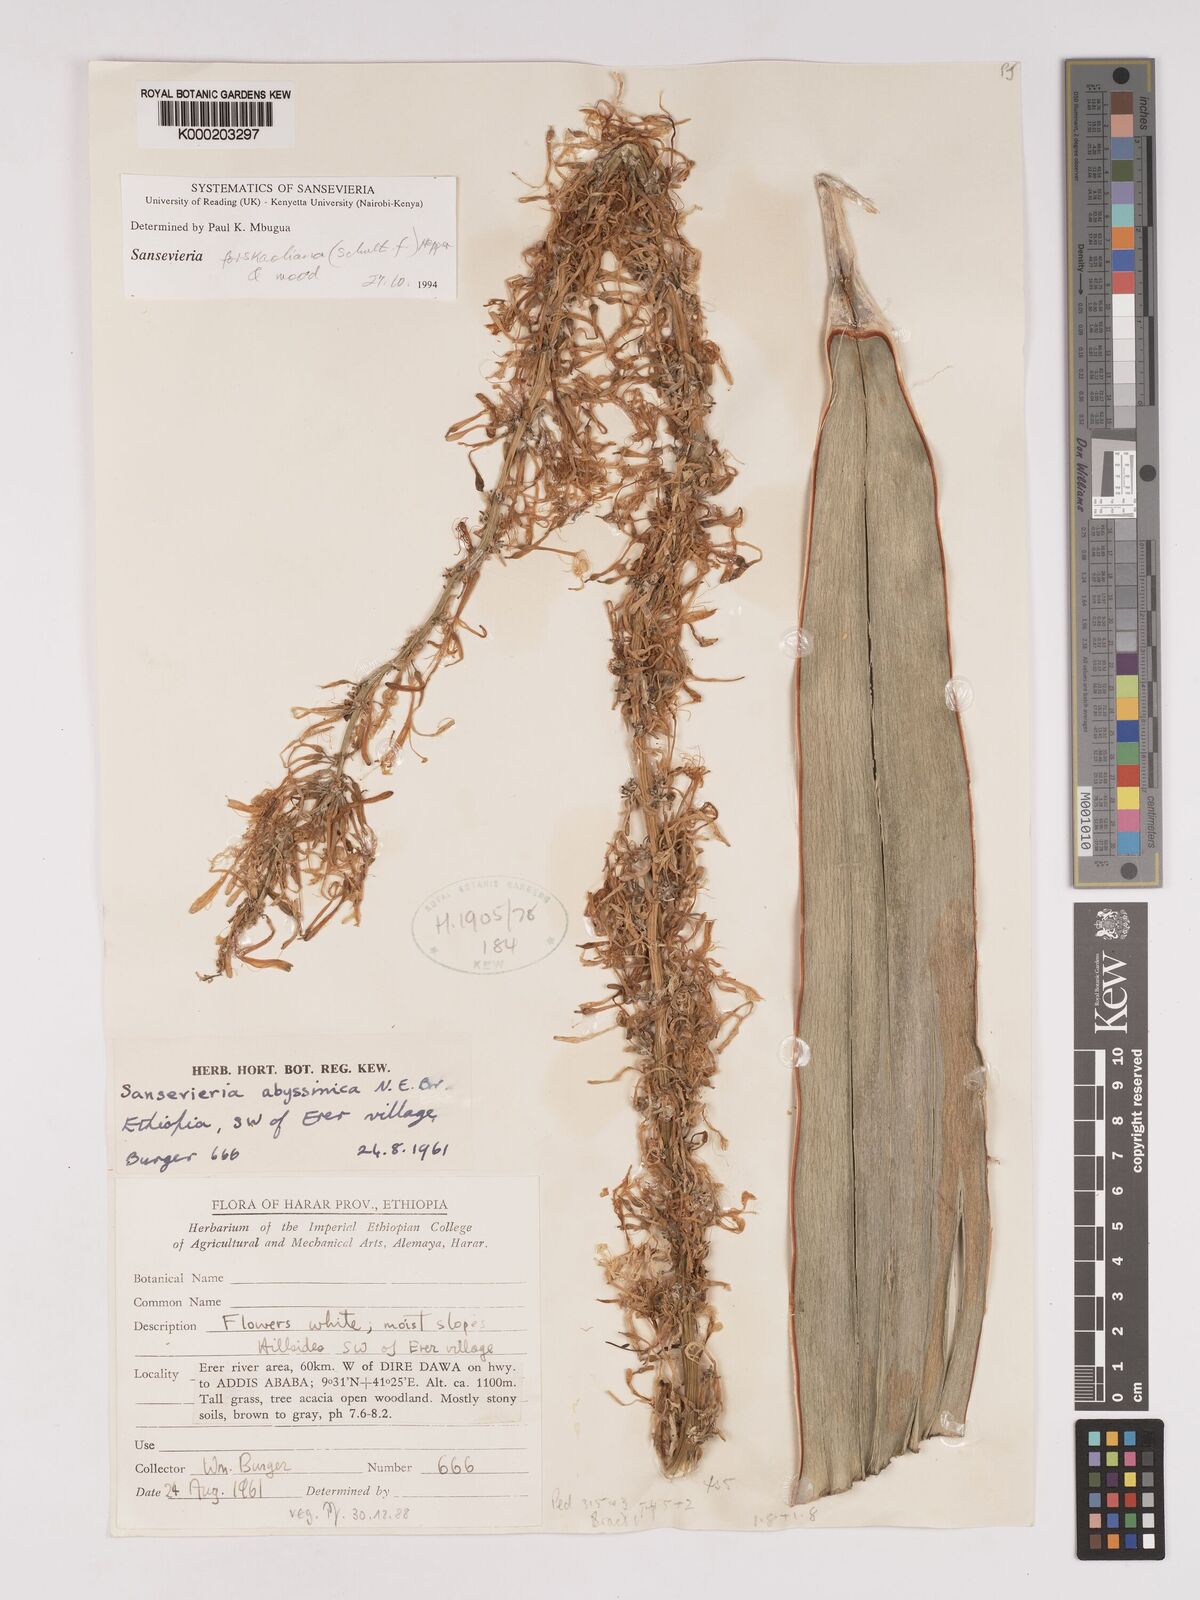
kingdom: Plantae
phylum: Tracheophyta
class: Liliopsida
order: Asparagales
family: Asparagaceae
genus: Dracaena
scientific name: Dracaena forskaliana
